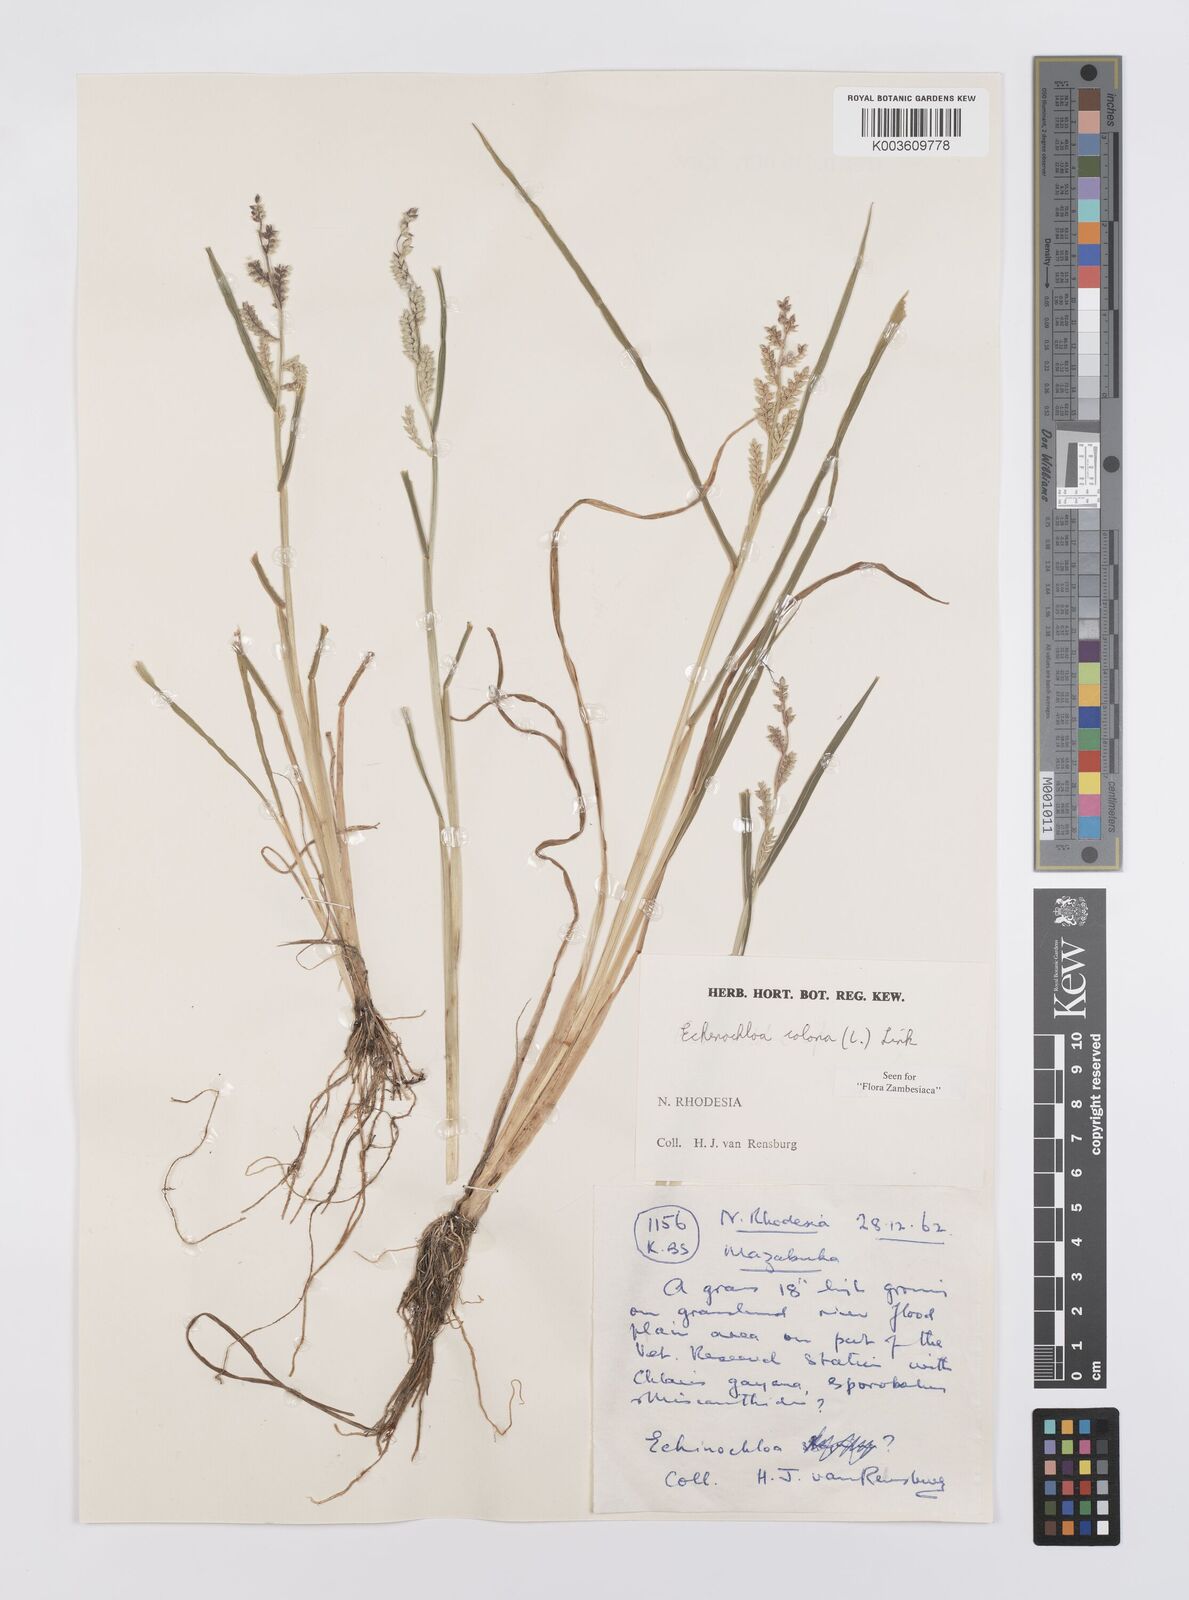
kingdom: Plantae
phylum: Tracheophyta
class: Liliopsida
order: Poales
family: Poaceae
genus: Echinochloa
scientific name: Echinochloa colonum
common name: Jungle rice
